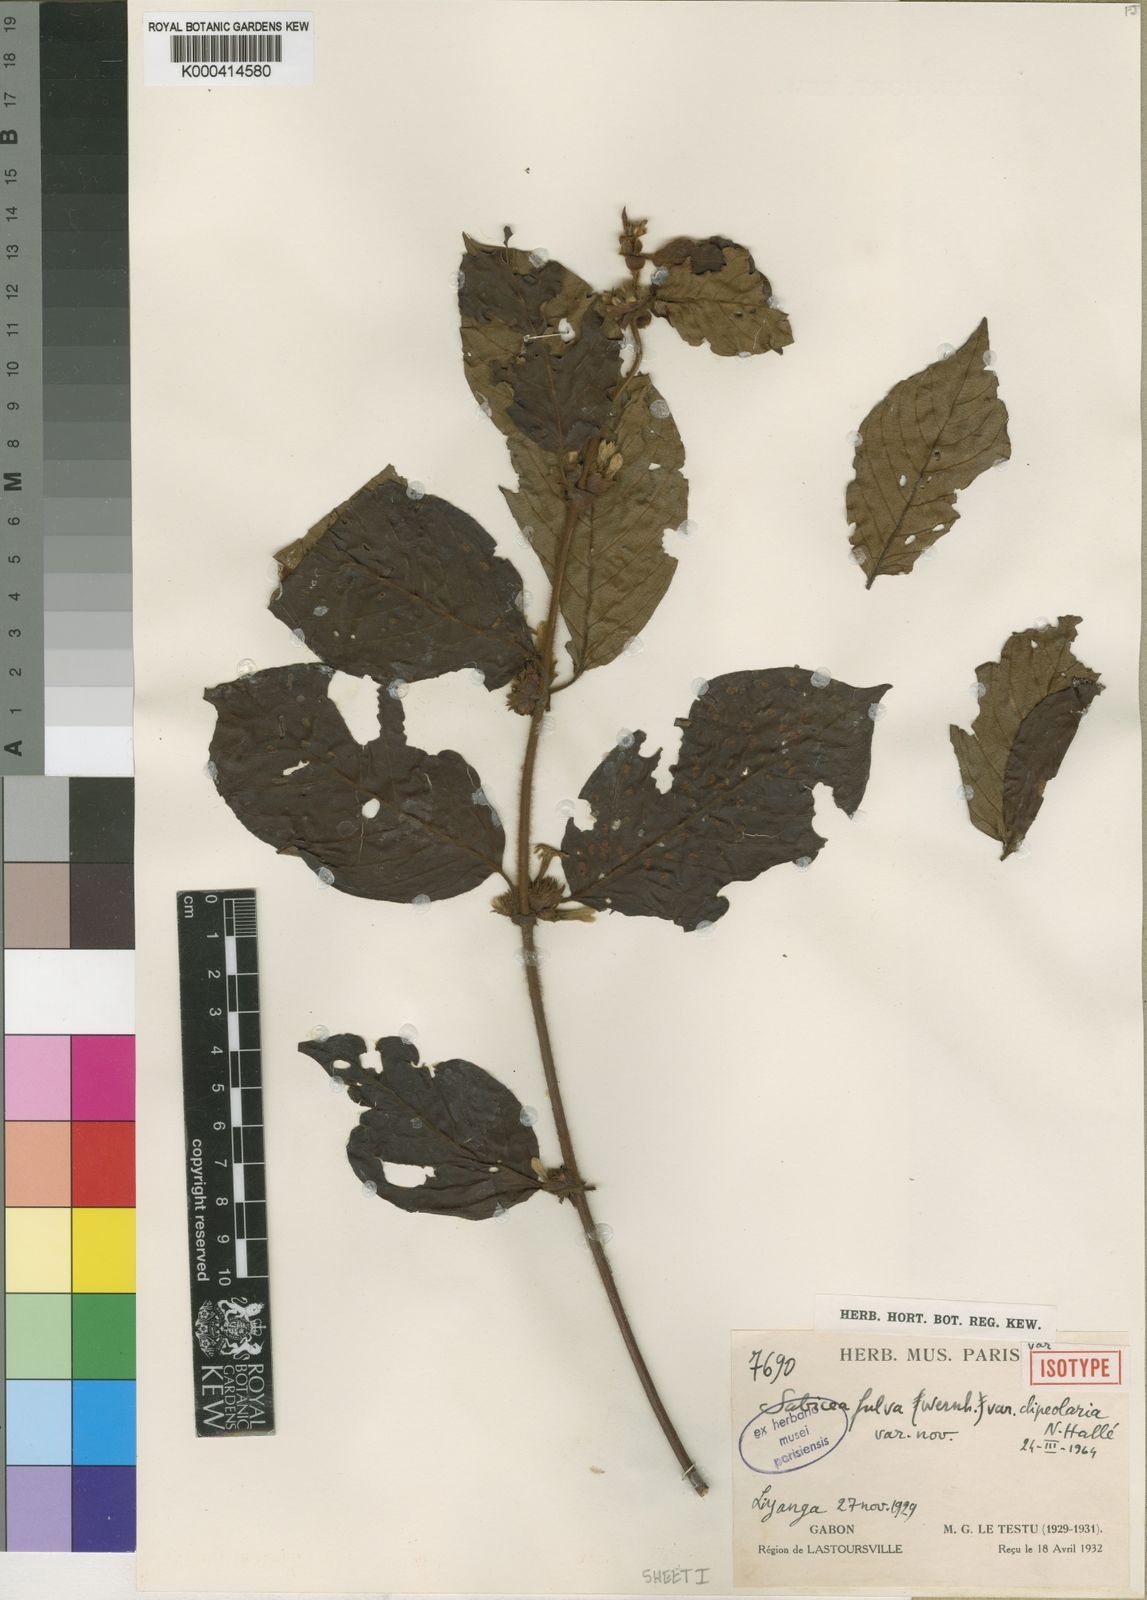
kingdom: Plantae
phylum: Tracheophyta
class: Magnoliopsida
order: Gentianales
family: Rubiaceae
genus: Sabicea
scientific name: Sabicea fulva
